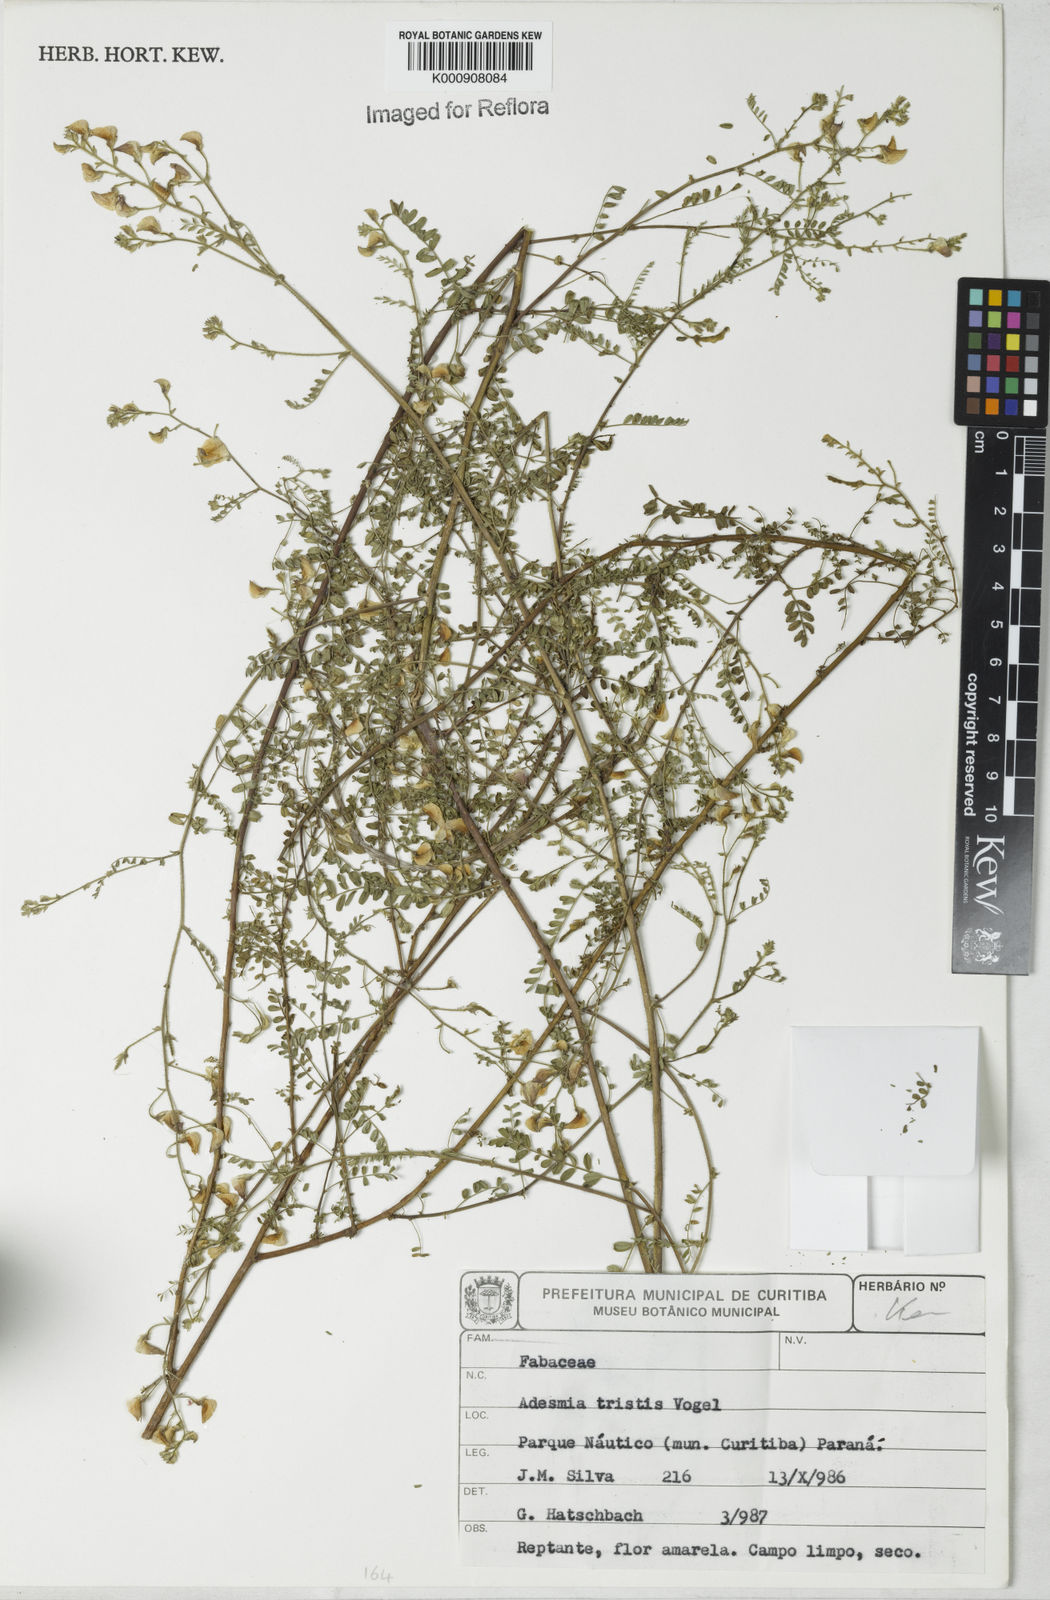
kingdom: Plantae
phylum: Tracheophyta
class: Magnoliopsida
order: Fabales
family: Fabaceae
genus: Adesmia
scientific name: Adesmia tristis
